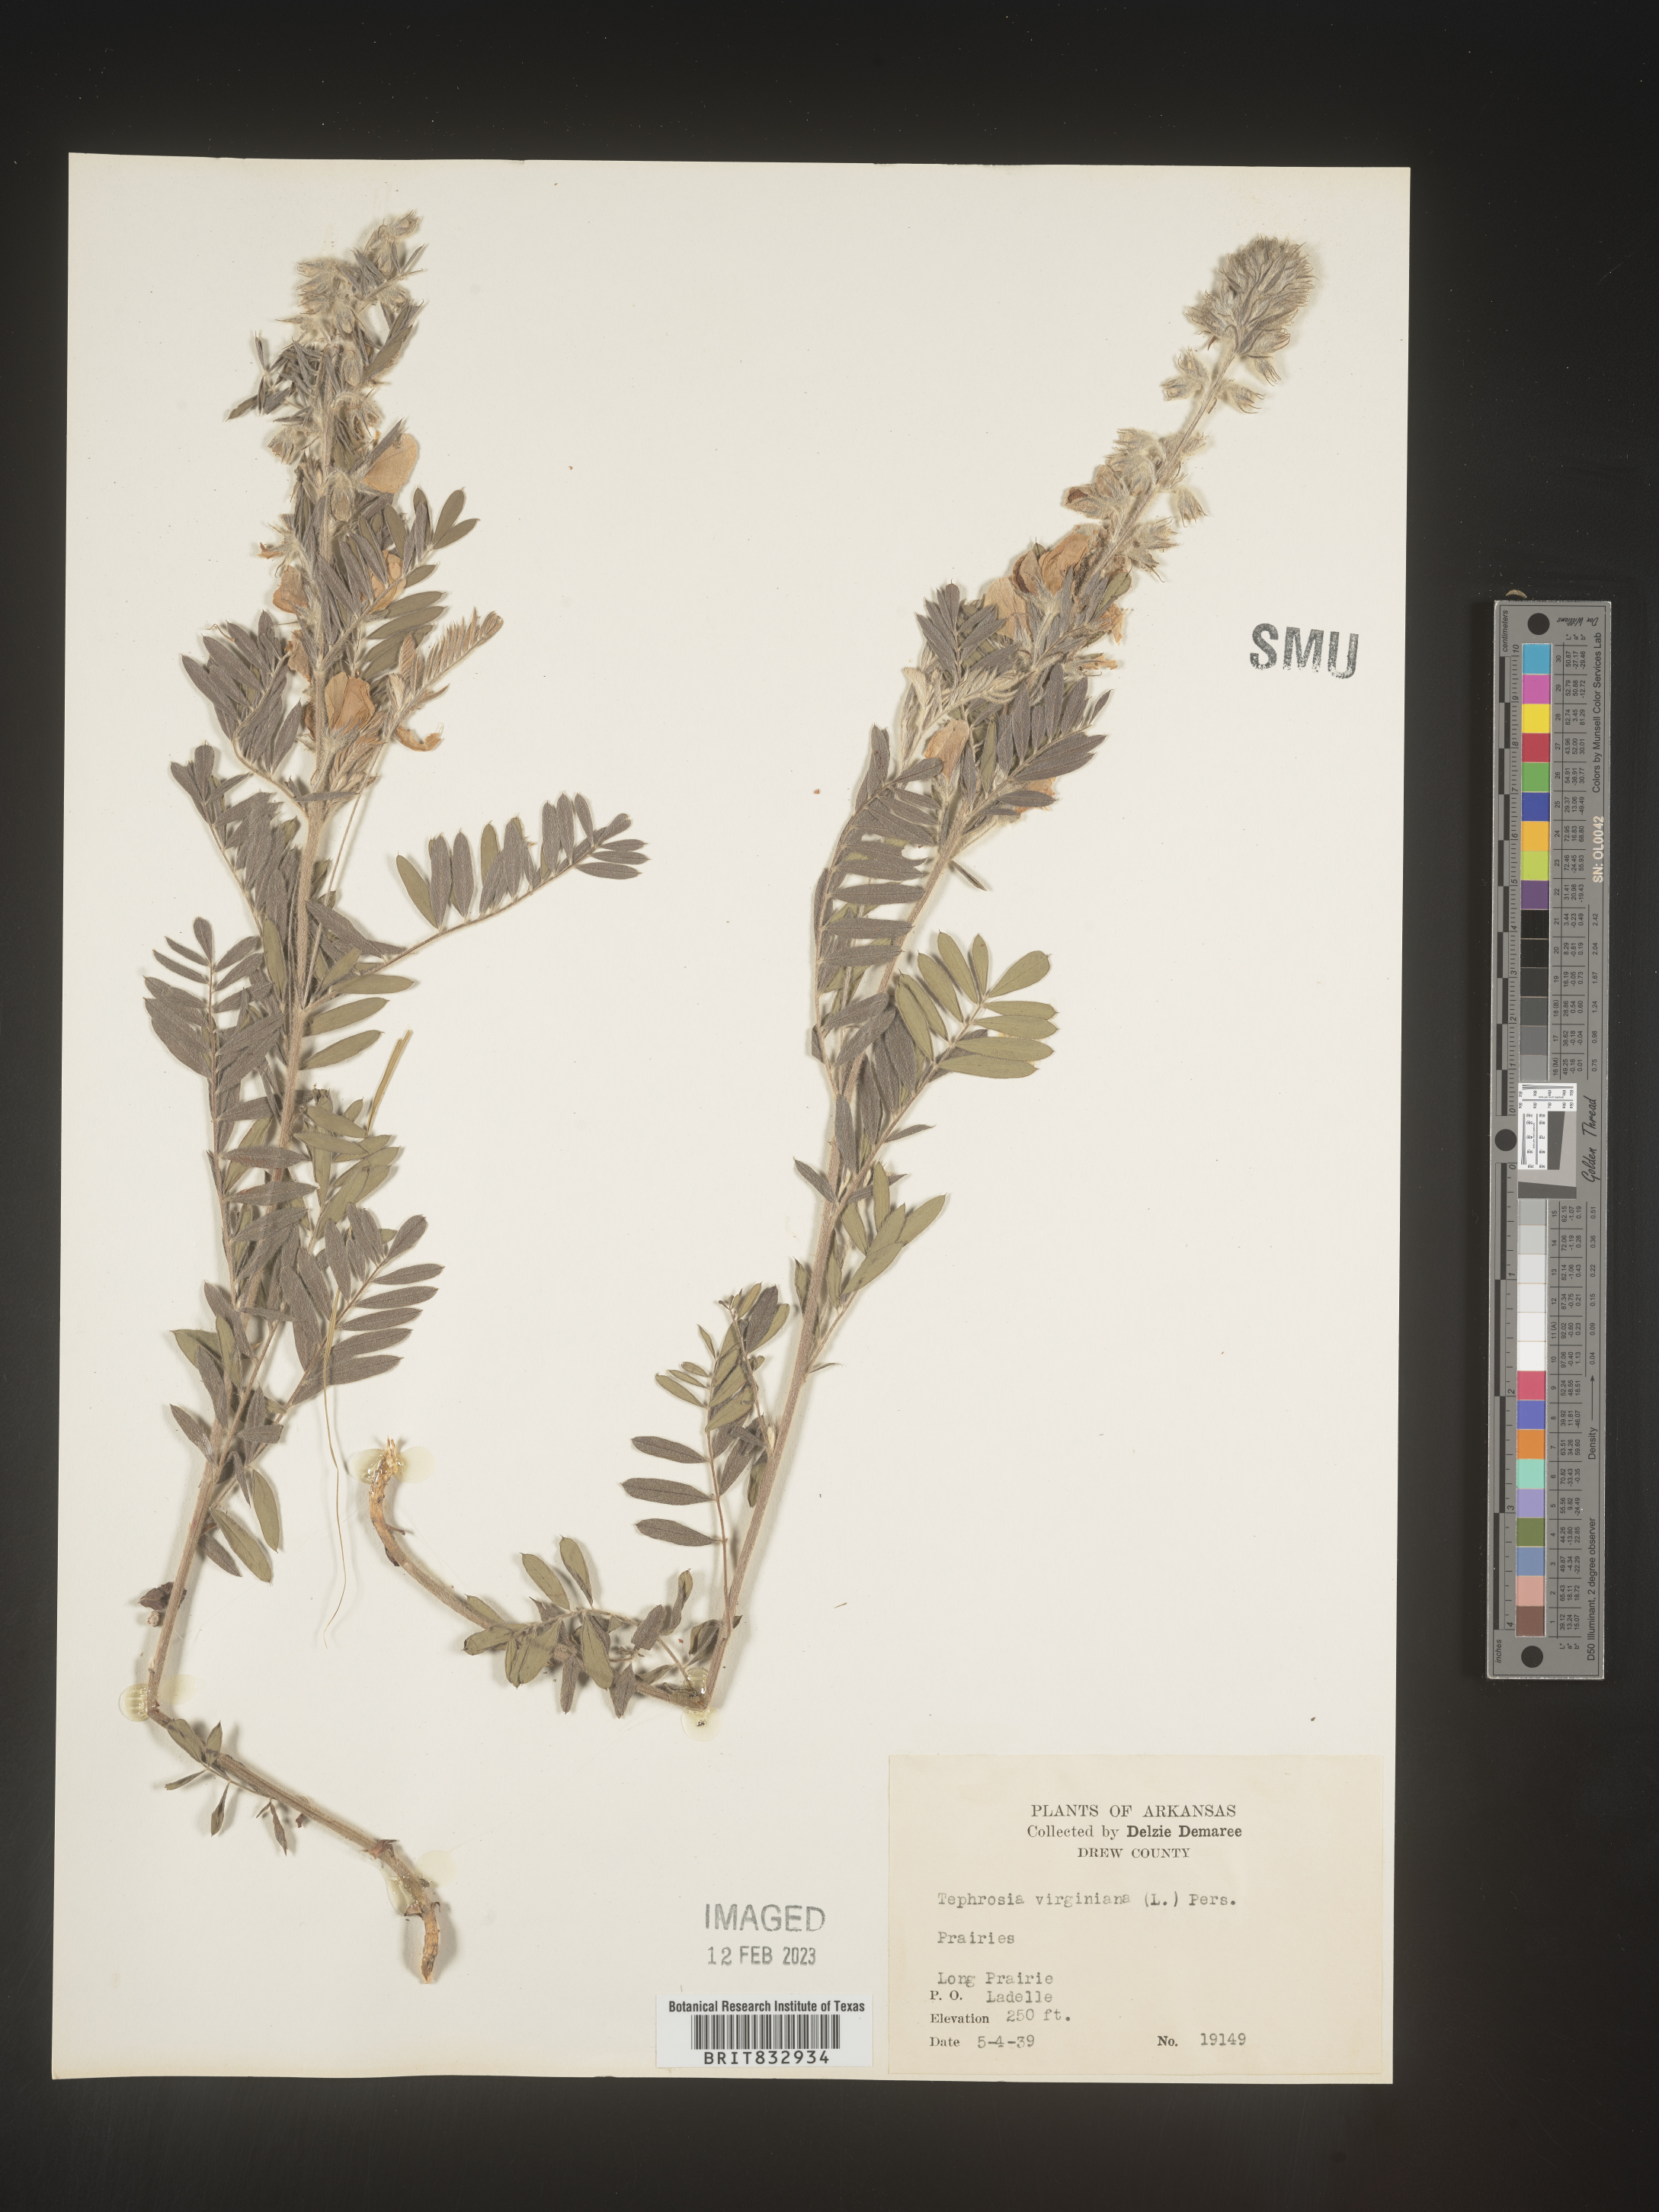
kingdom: Plantae
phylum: Tracheophyta
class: Magnoliopsida
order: Fabales
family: Fabaceae
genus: Tephrosia
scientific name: Tephrosia virginiana
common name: Rabbit-pea
